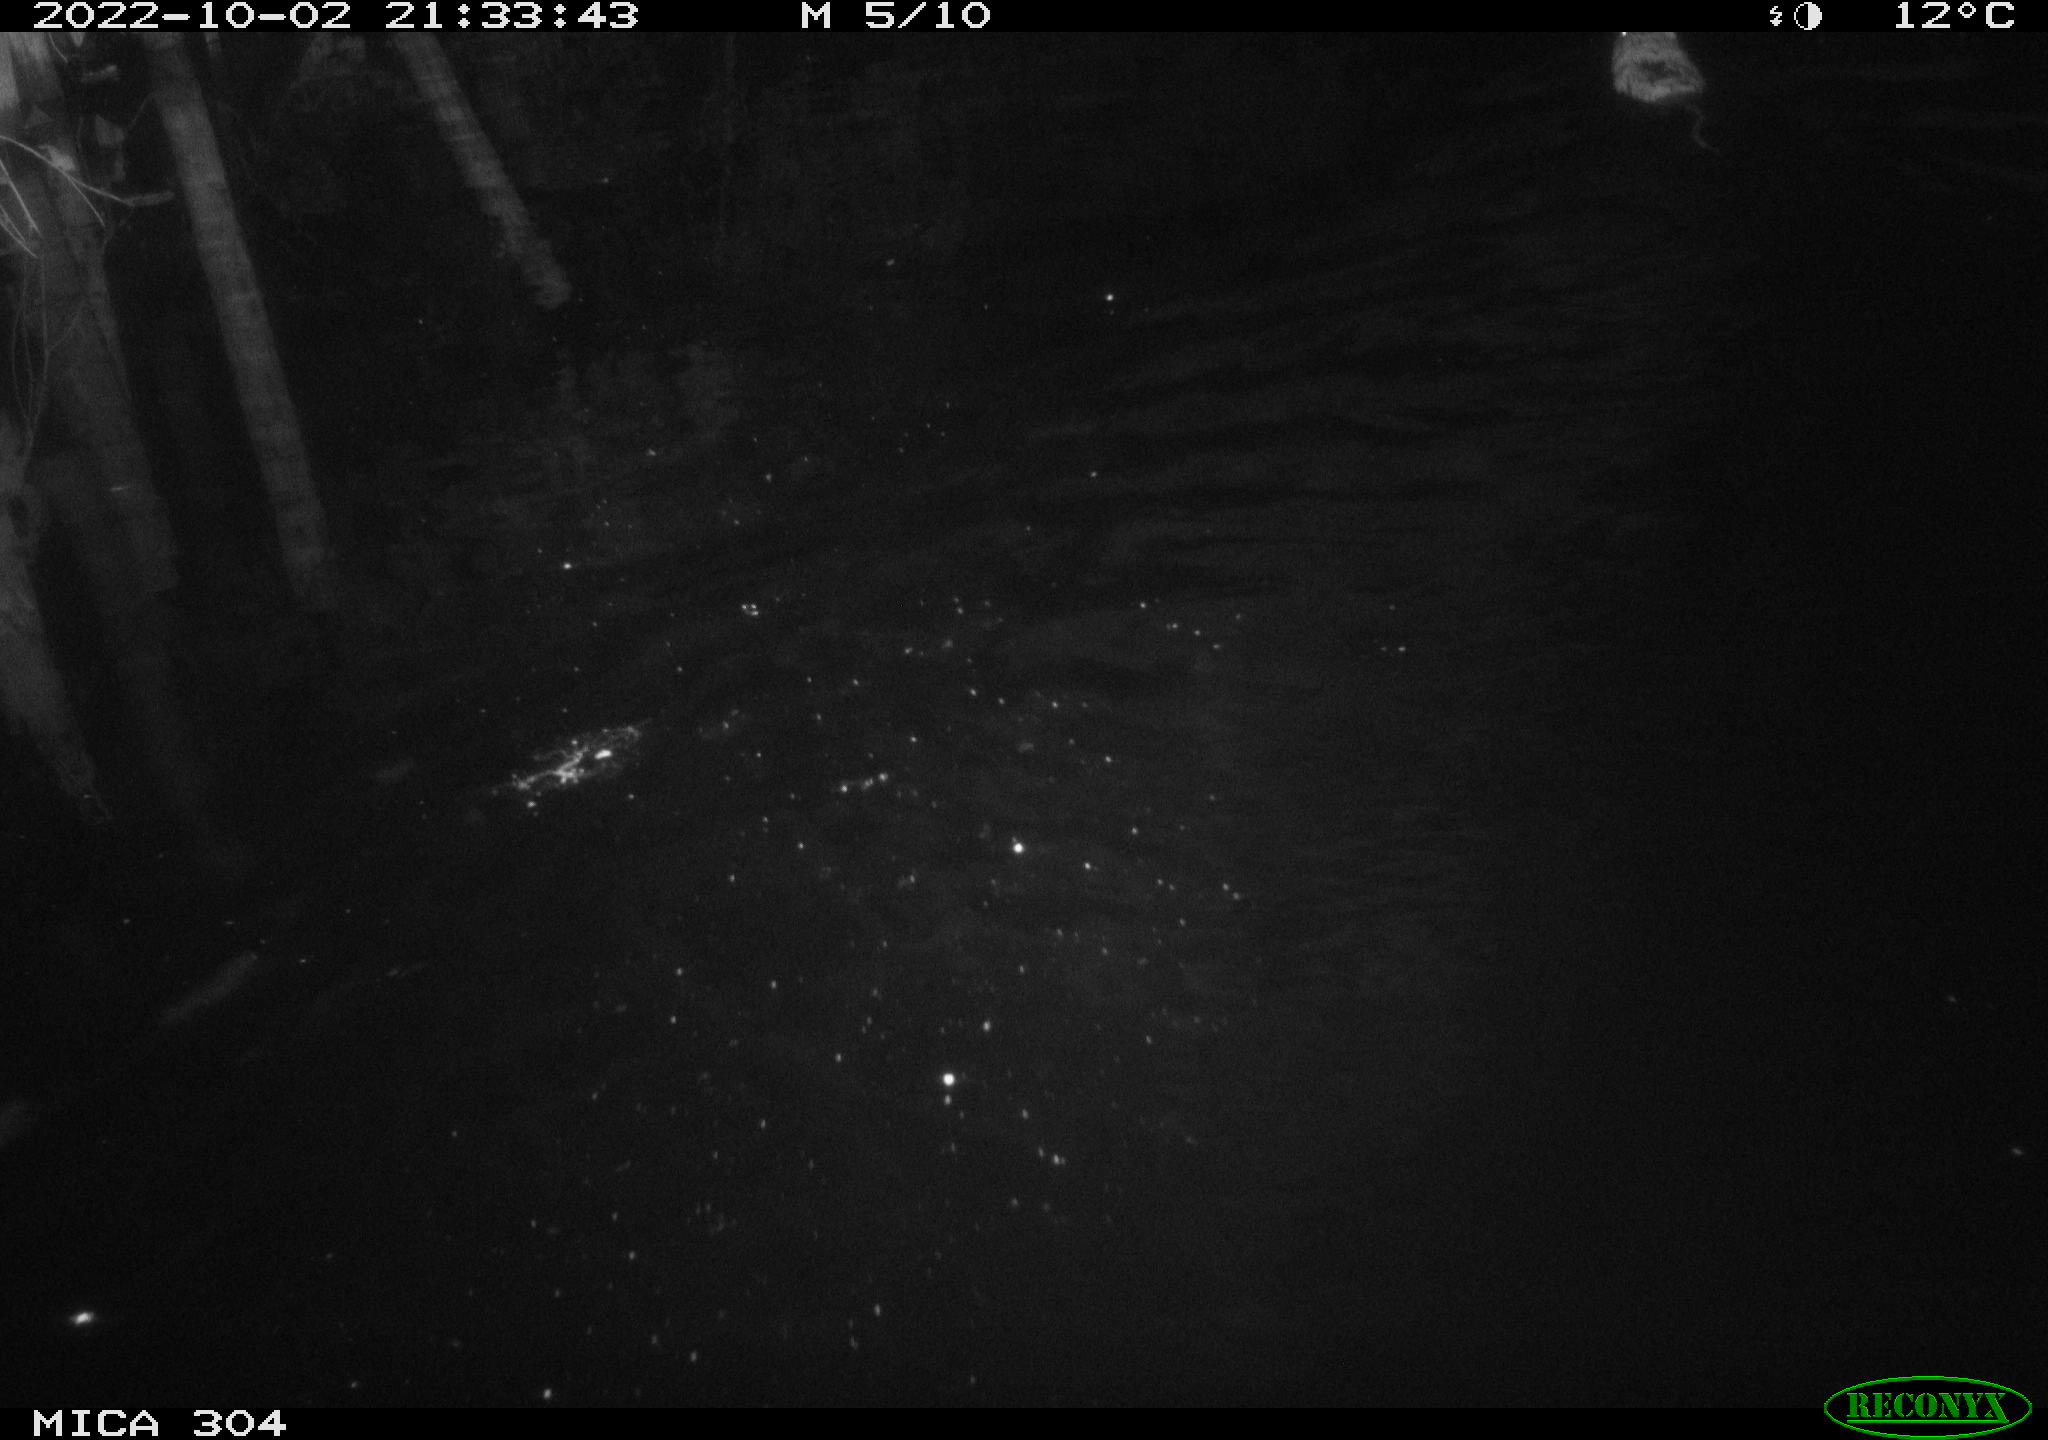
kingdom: Animalia
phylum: Chordata
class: Mammalia
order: Rodentia
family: Cricetidae
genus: Ondatra
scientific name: Ondatra zibethicus
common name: Muskrat
